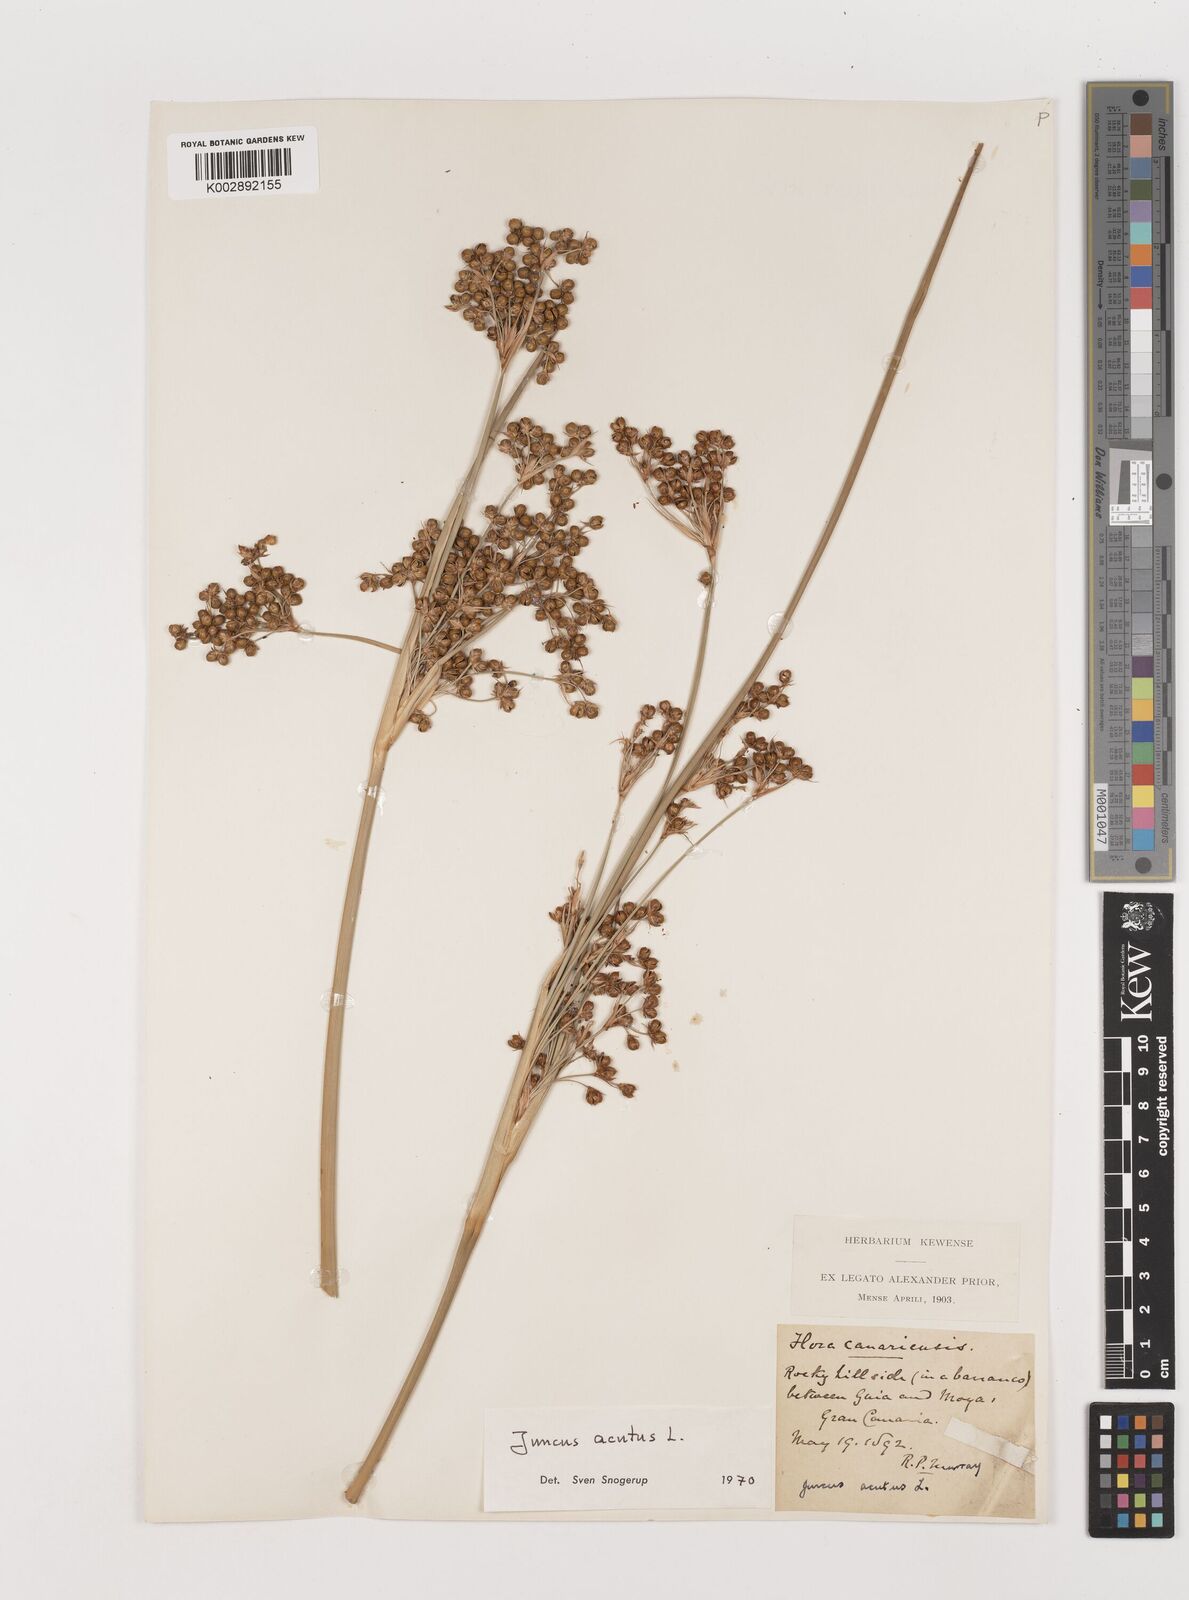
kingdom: Plantae
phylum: Tracheophyta
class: Liliopsida
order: Poales
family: Juncaceae
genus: Juncus
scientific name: Juncus acutus
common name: Sharp rush
